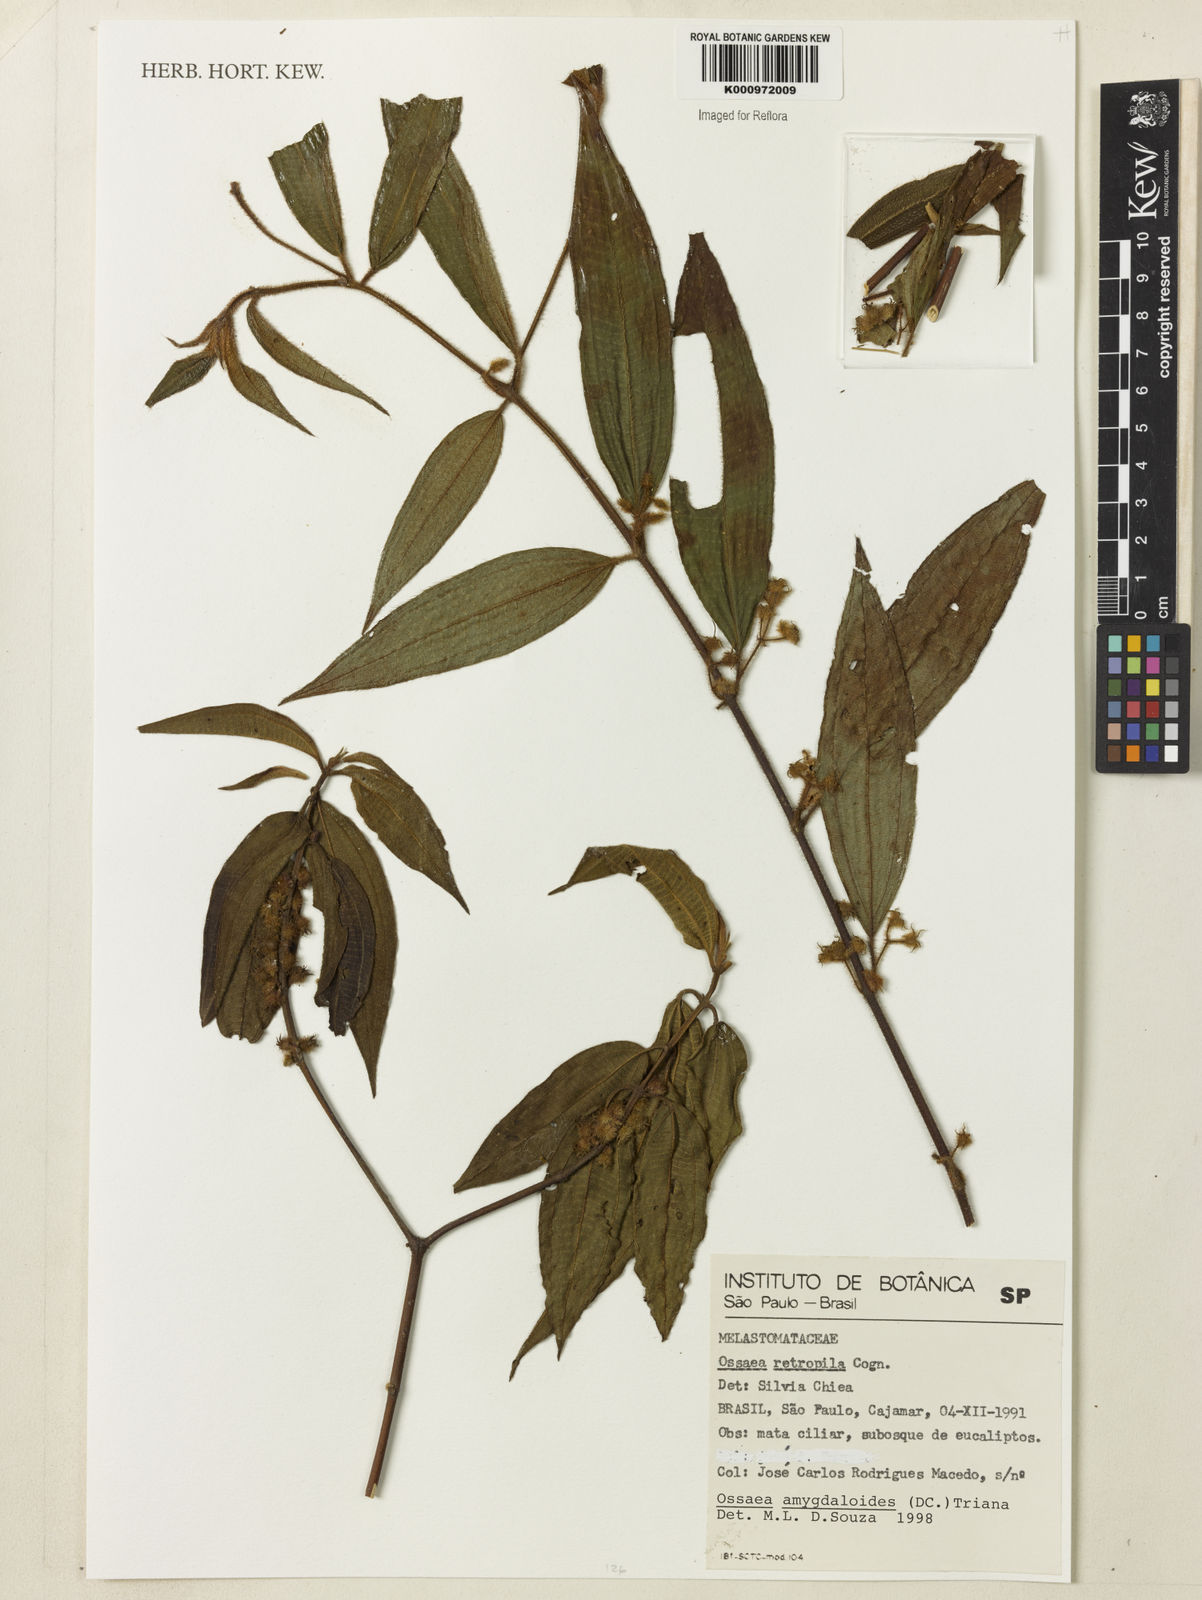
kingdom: Plantae
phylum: Tracheophyta
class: Magnoliopsida
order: Myrtales
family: Melastomataceae
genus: Miconia
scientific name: Miconia amygdaloides
